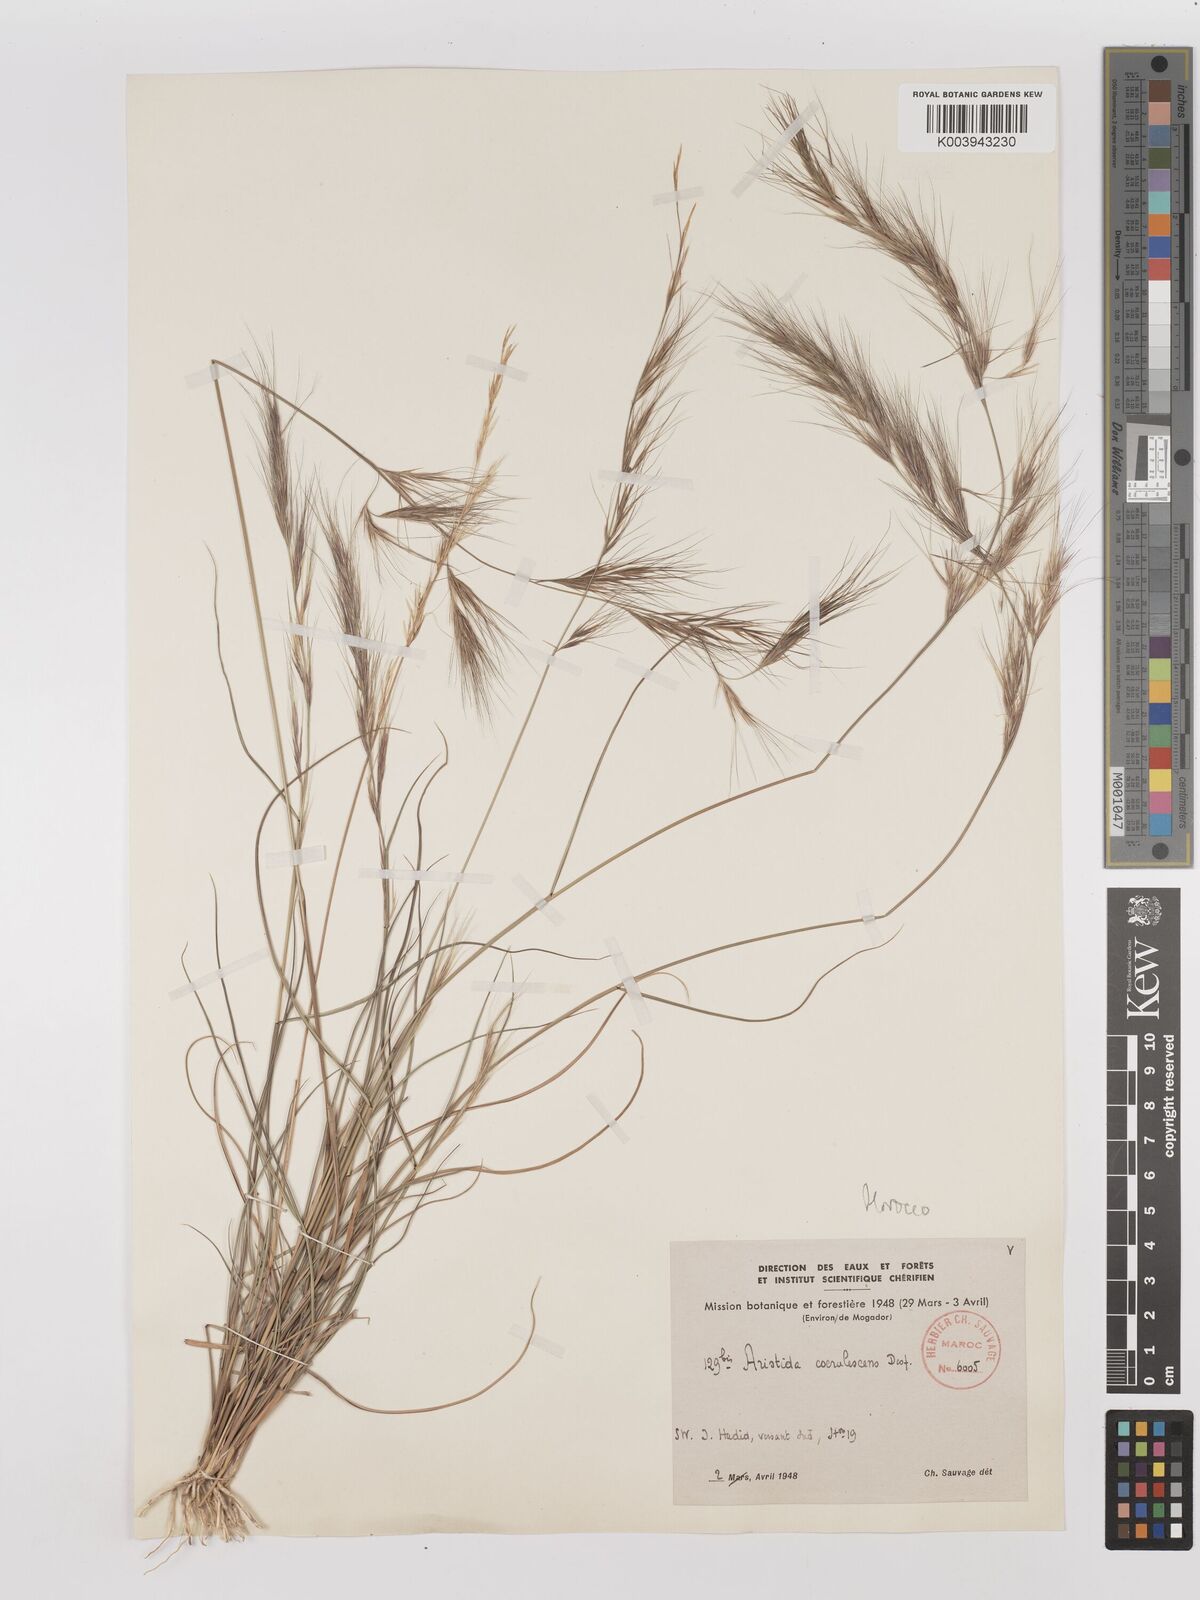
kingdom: Plantae
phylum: Tracheophyta
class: Liliopsida
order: Poales
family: Poaceae
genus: Aristida
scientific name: Aristida adscensionis
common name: Sixweeks threeawn
